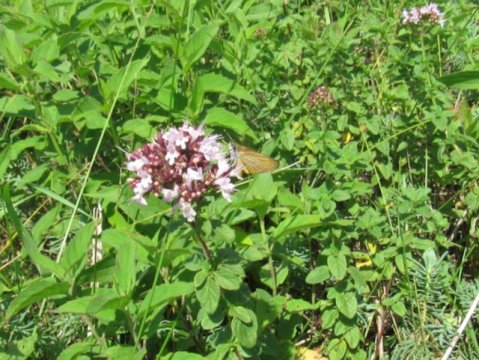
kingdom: Animalia
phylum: Arthropoda
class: Insecta
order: Lepidoptera
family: Hesperiidae
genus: Ancyloxypha
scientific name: Ancyloxypha numitor
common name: Least Skipper
